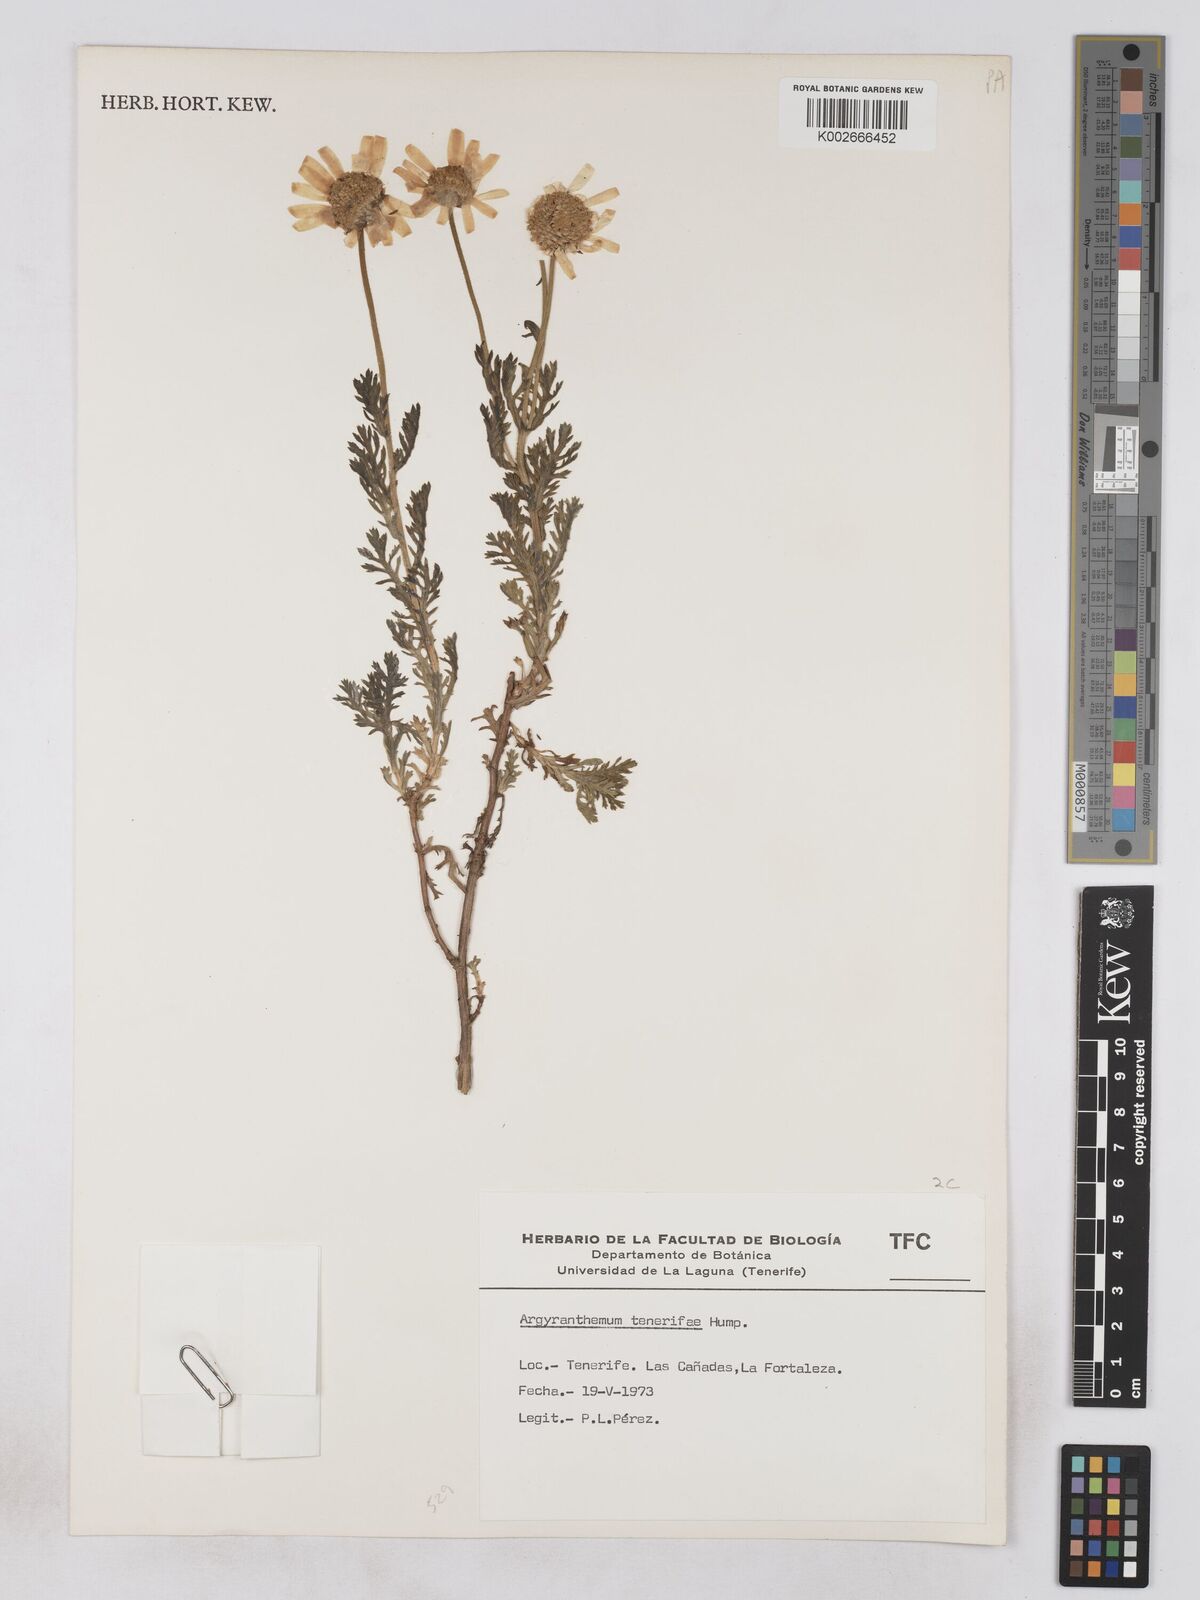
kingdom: Plantae
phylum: Tracheophyta
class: Magnoliopsida
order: Asterales
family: Asteraceae
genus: Argyranthemum
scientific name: Argyranthemum tenerifae
